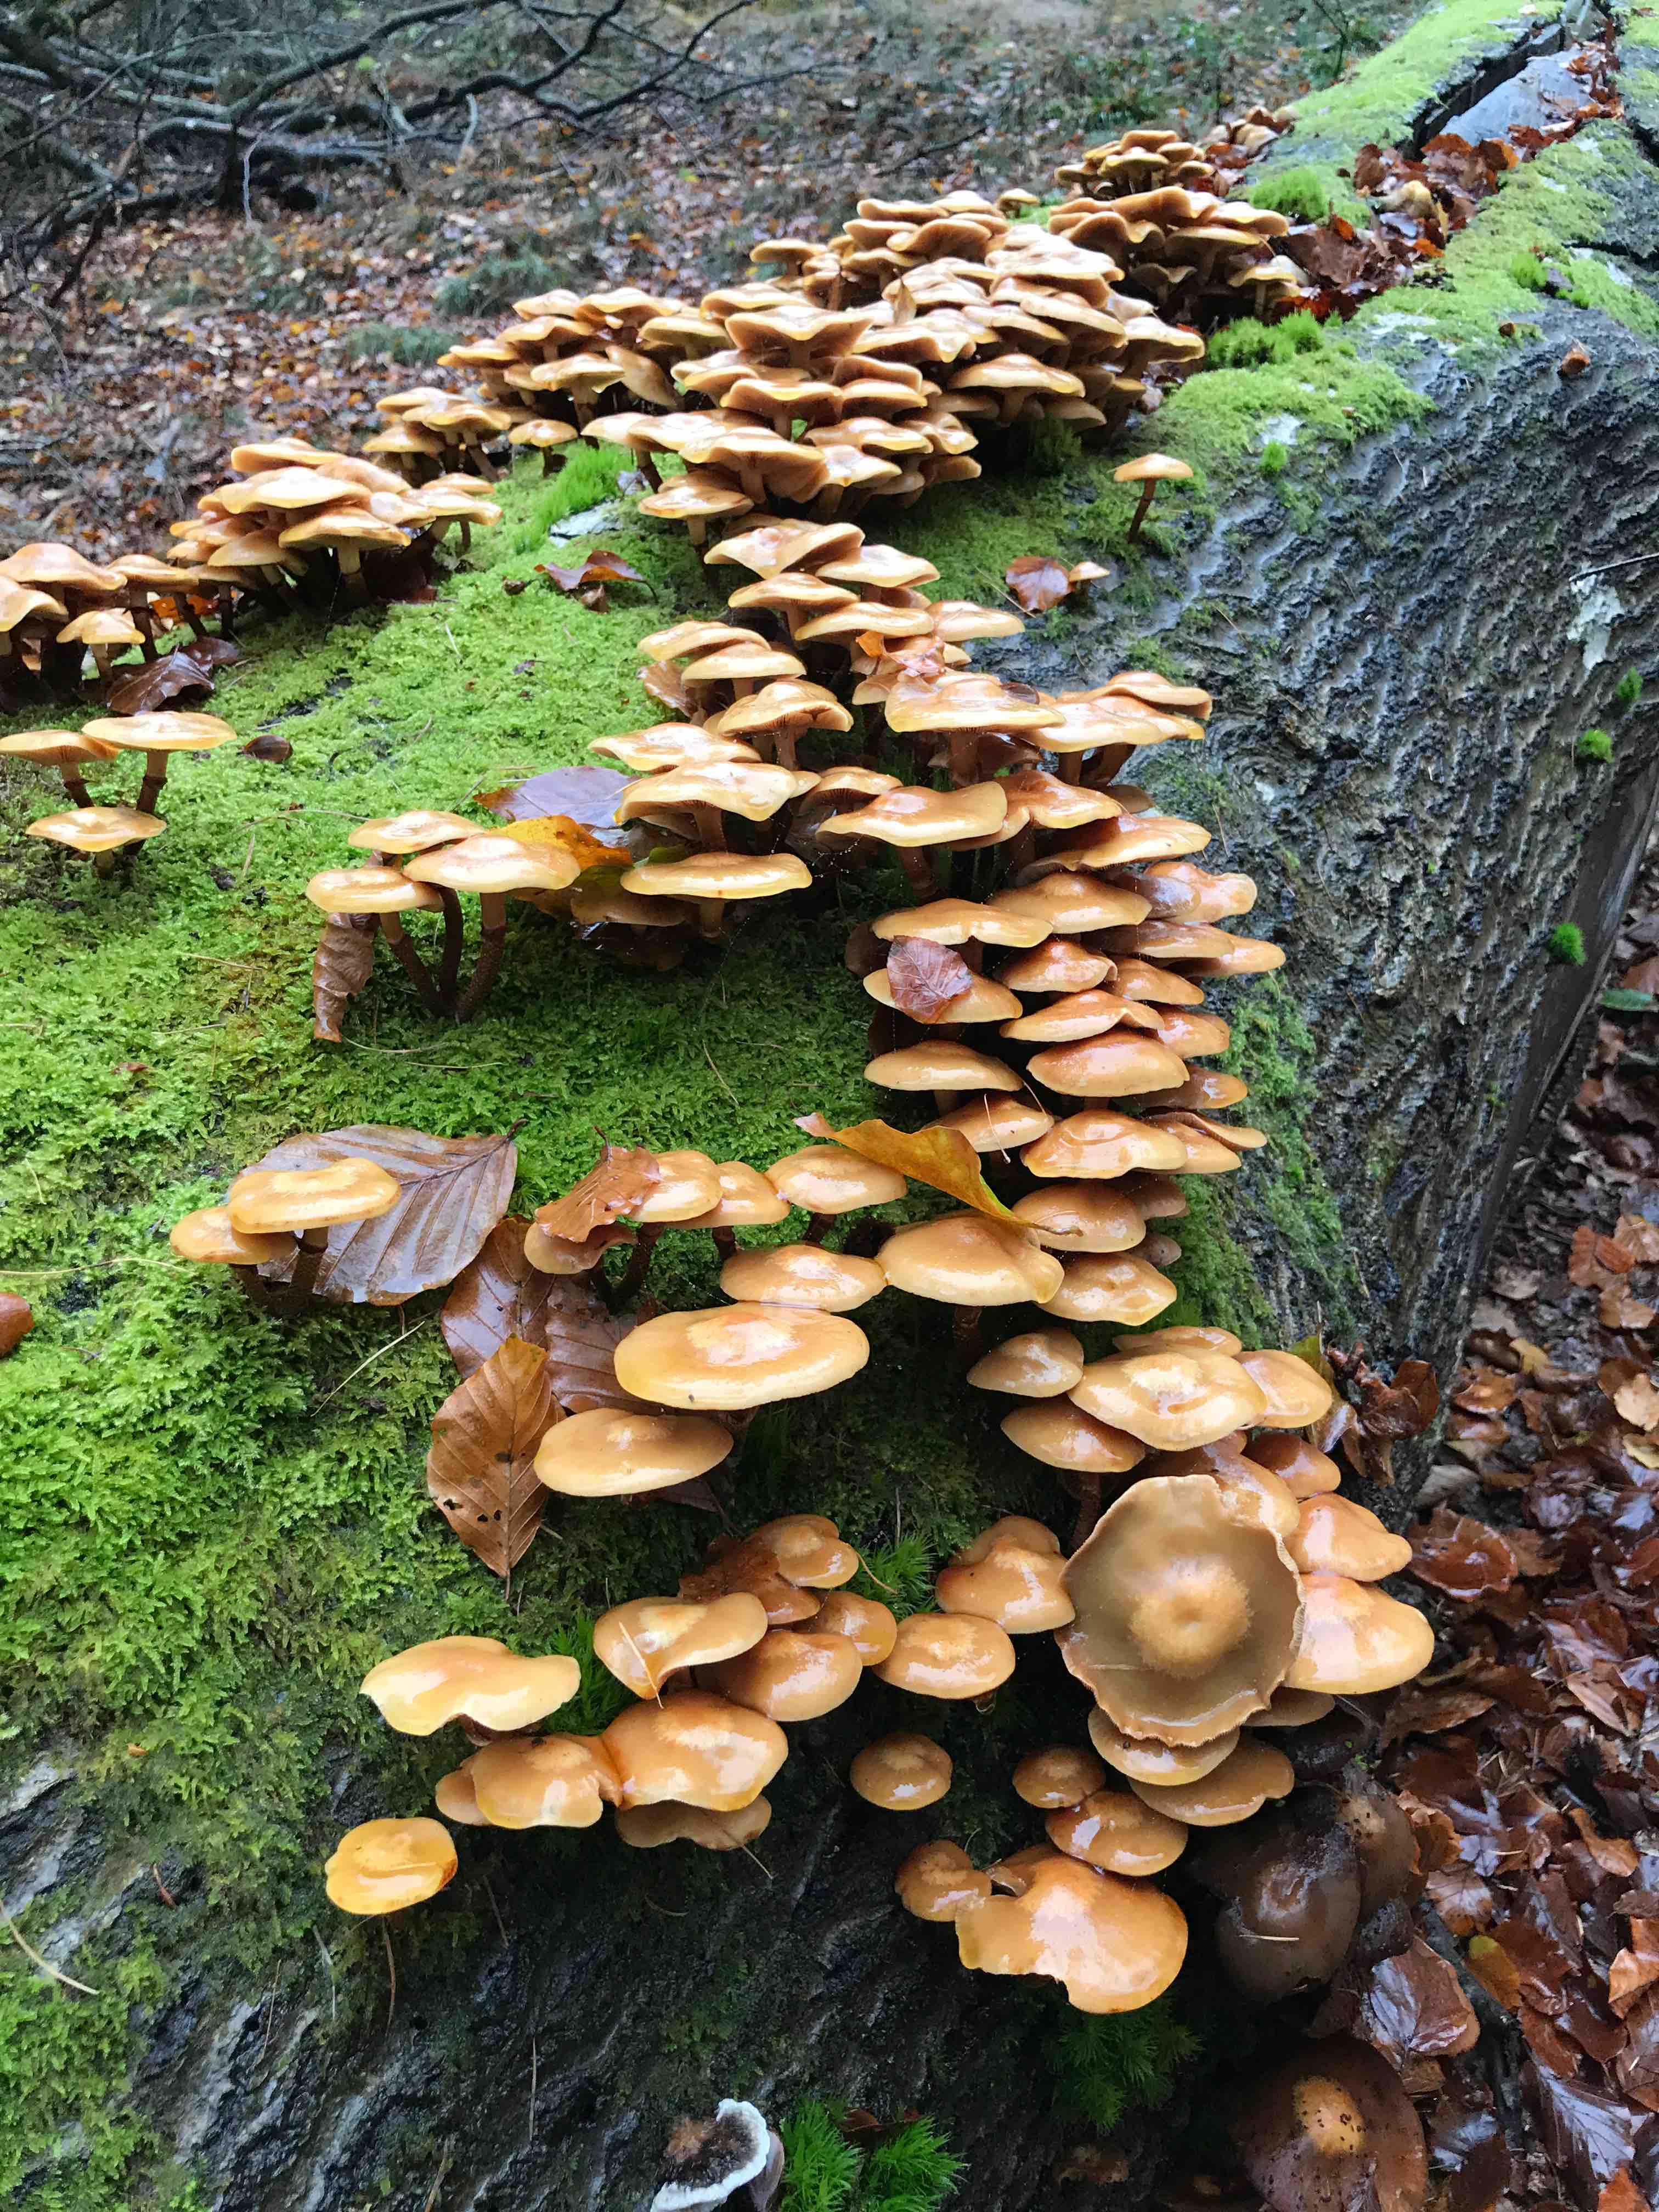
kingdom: Fungi
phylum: Basidiomycota
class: Agaricomycetes
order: Agaricales
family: Strophariaceae
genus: Kuehneromyces
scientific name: Kuehneromyces mutabilis
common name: foranderlig skælhat
